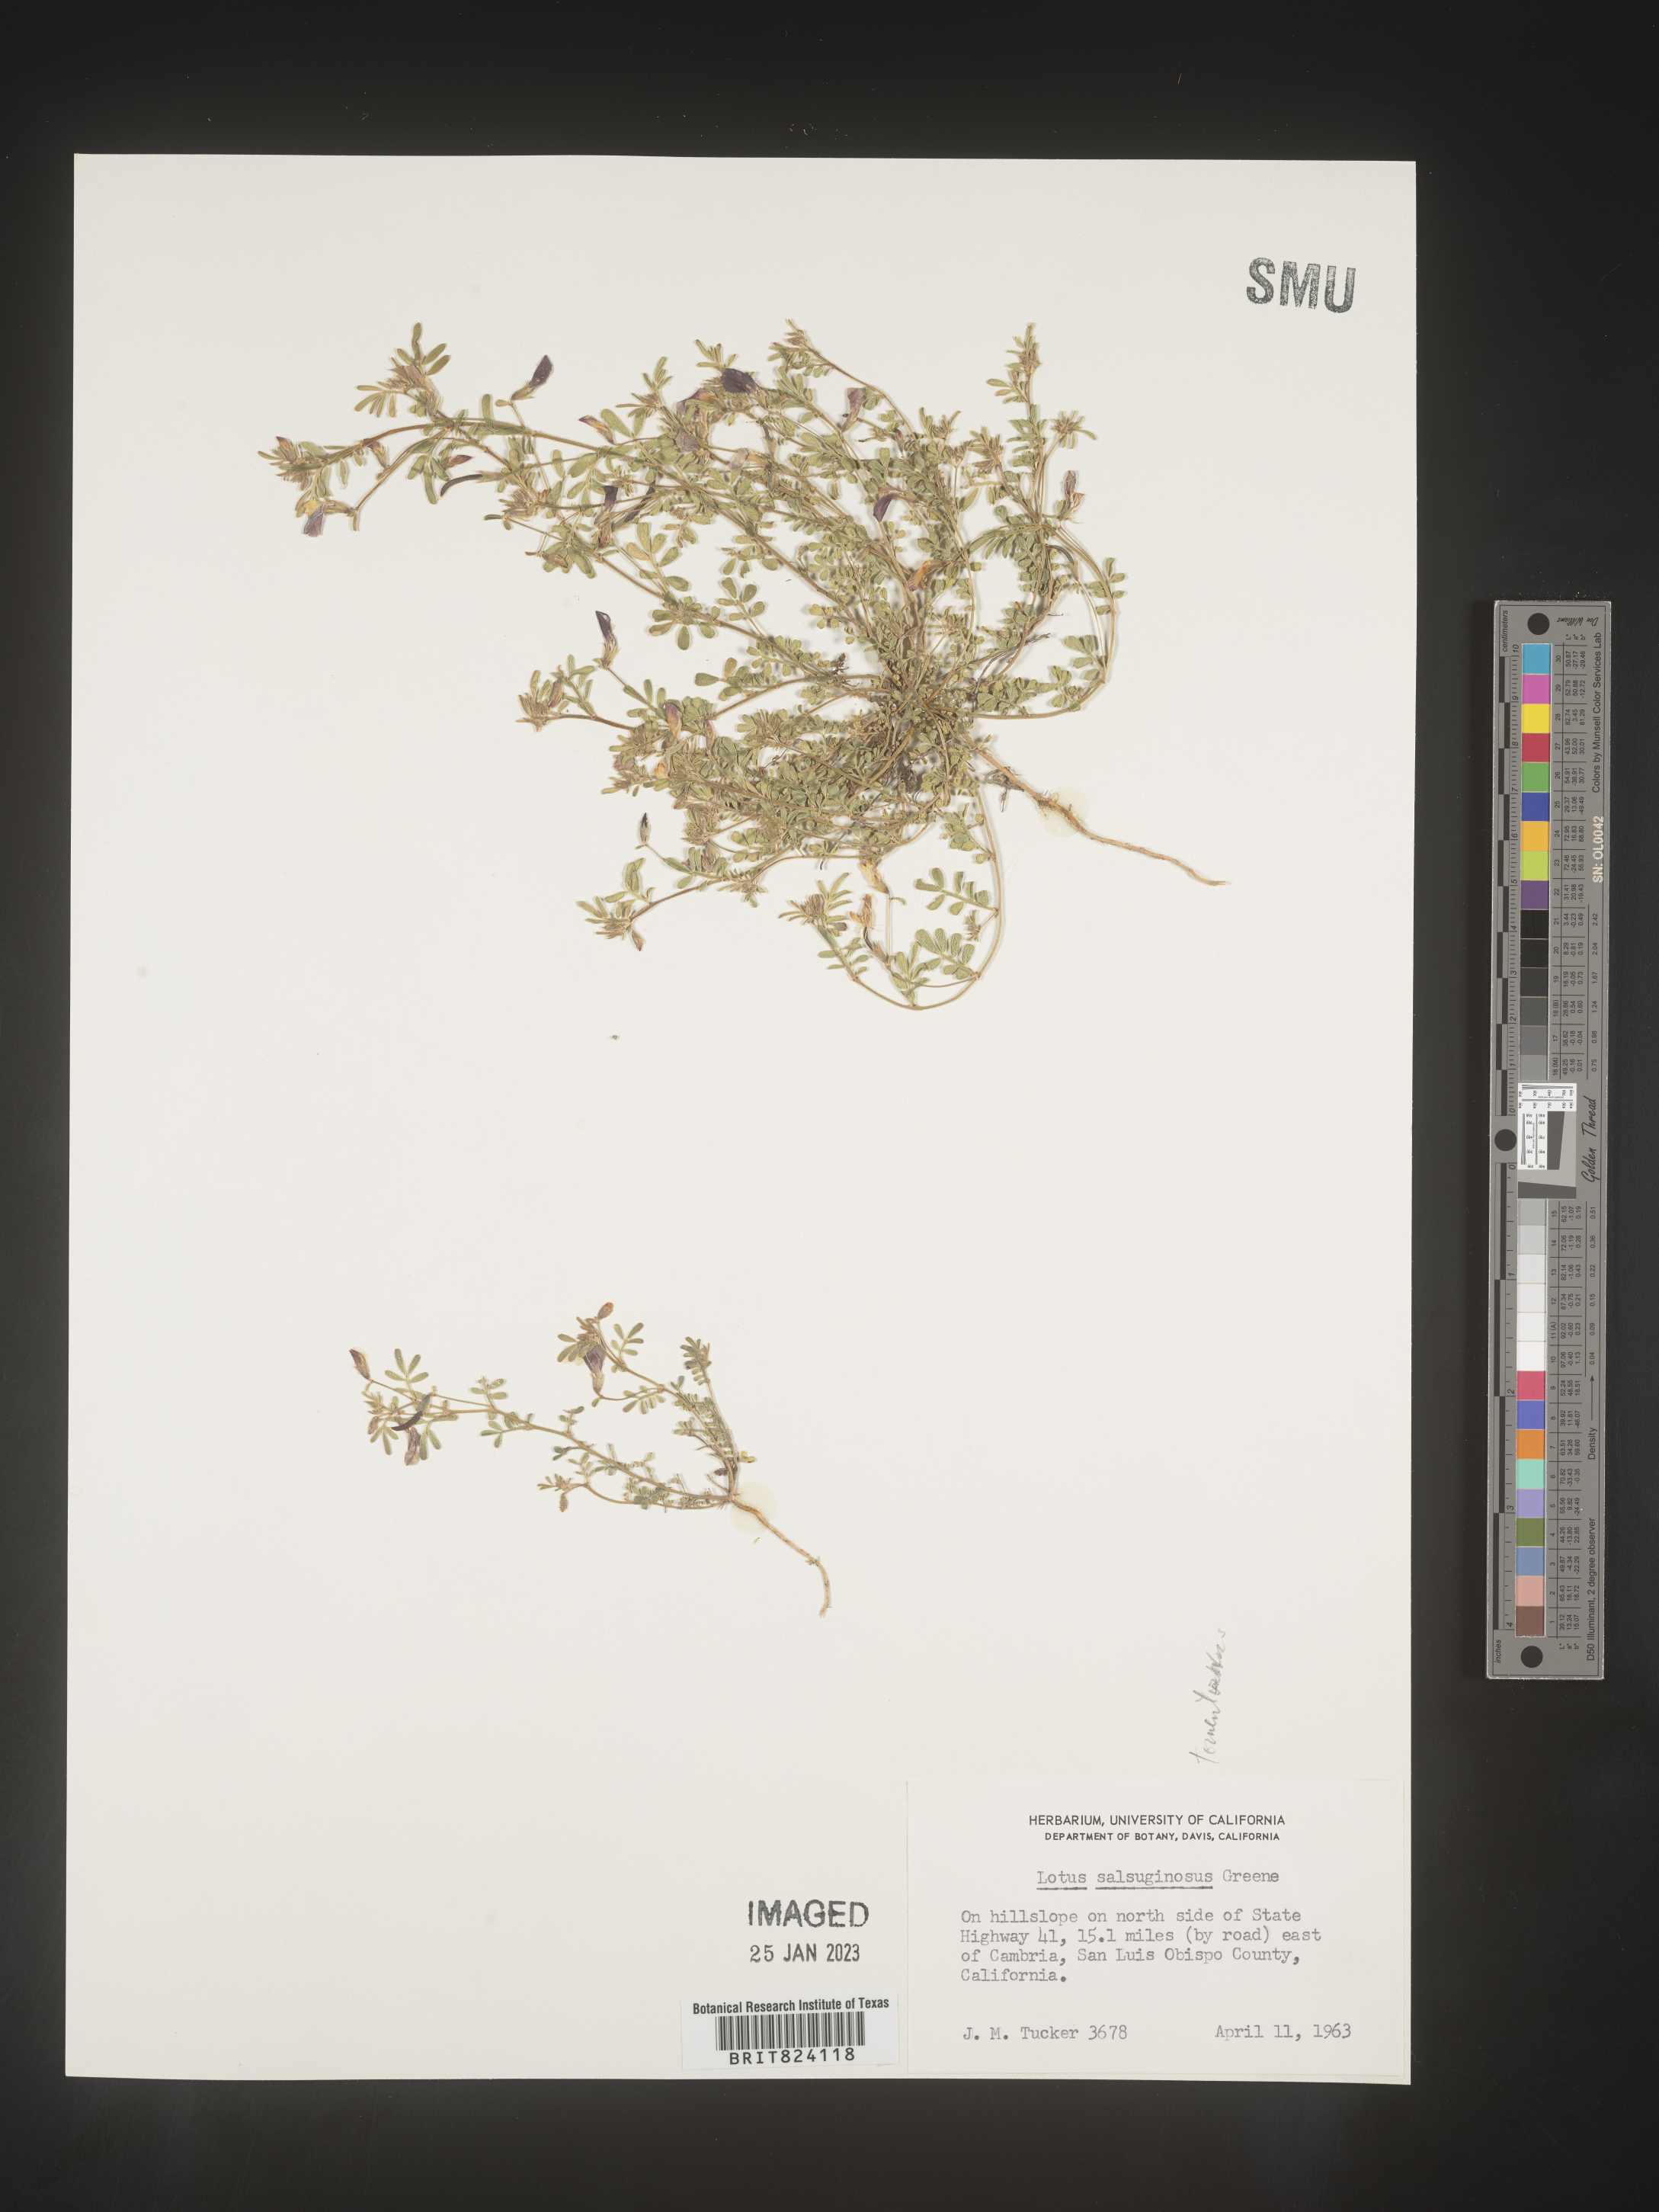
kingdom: Plantae
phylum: Tracheophyta
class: Magnoliopsida
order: Fabales
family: Fabaceae
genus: Lotus
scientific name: Lotus
